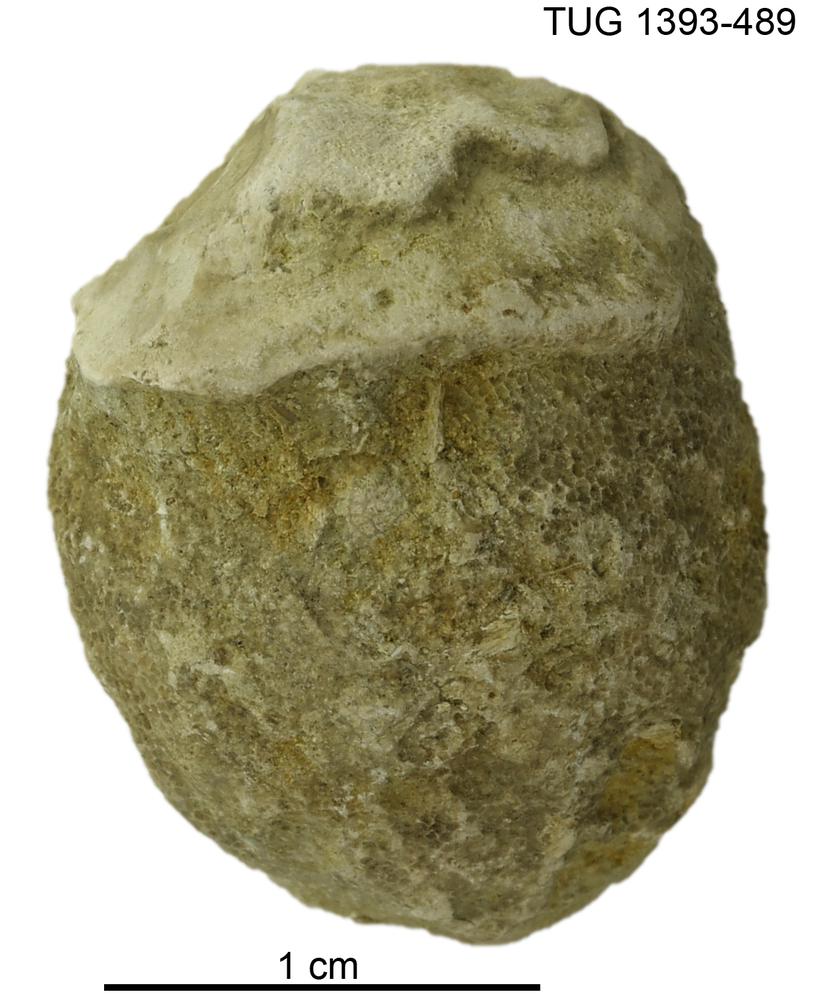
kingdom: Animalia
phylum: Bryozoa
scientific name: Bryozoa
